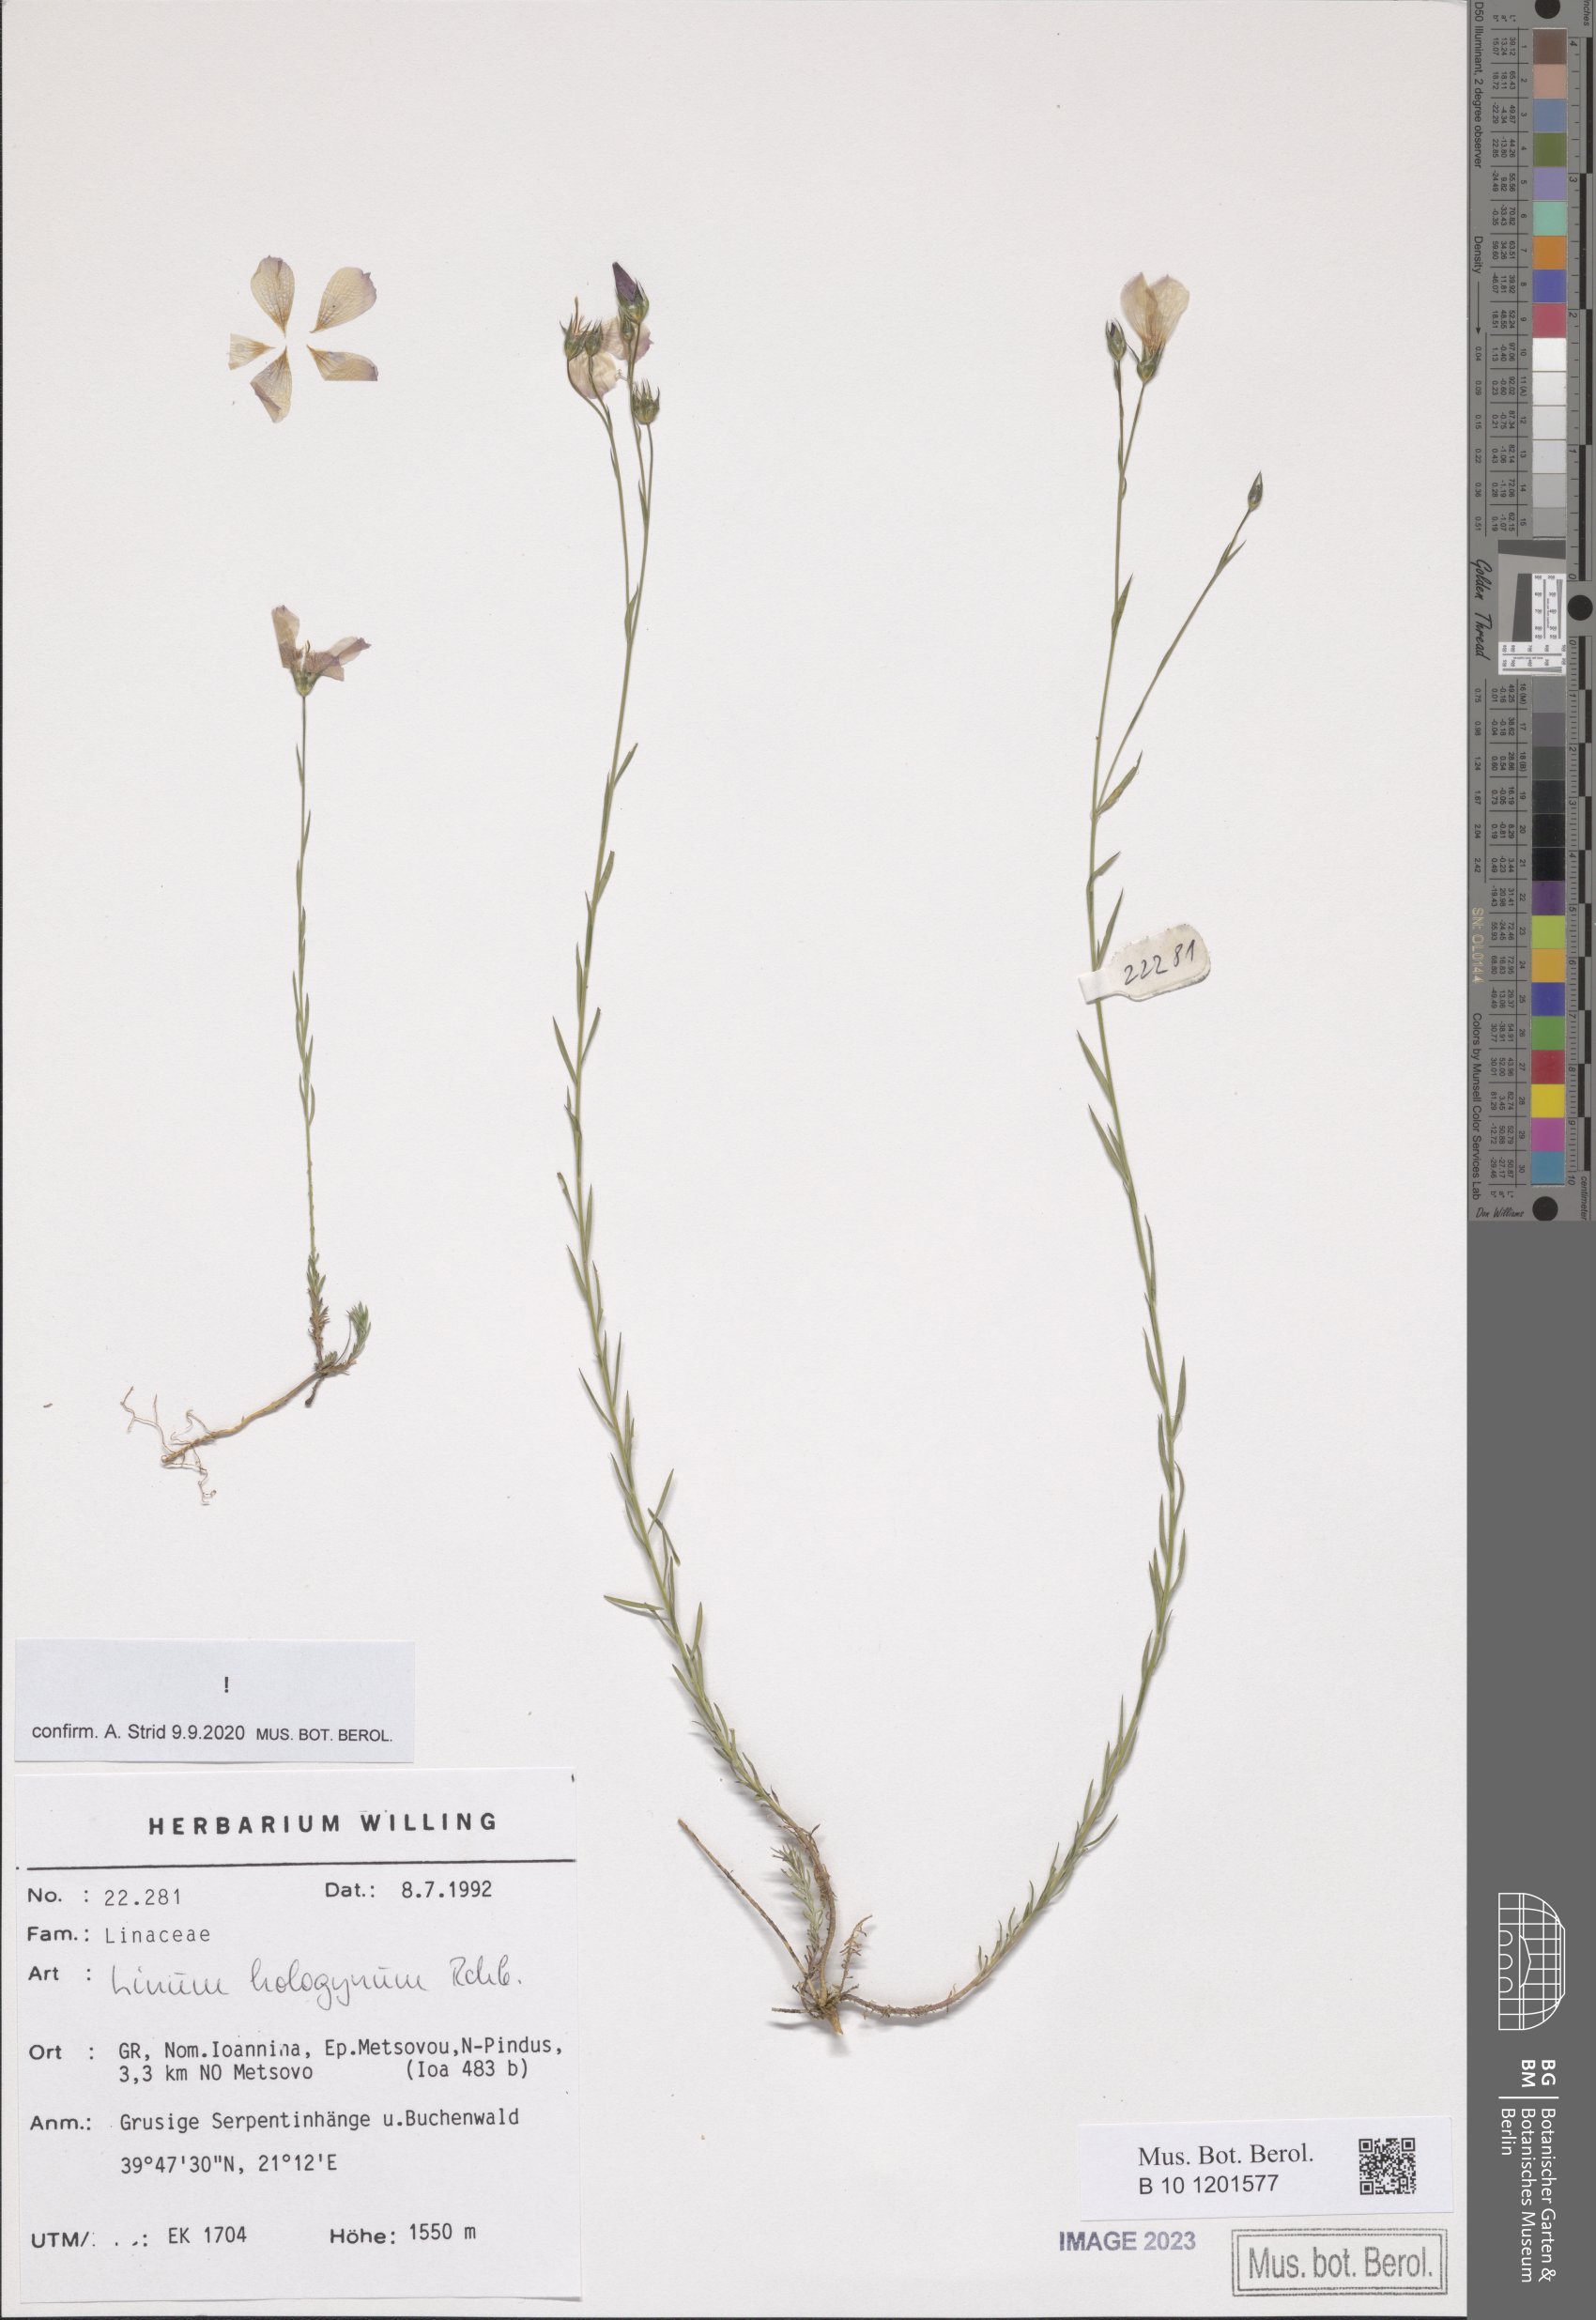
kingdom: Plantae
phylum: Tracheophyta
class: Magnoliopsida
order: Malpighiales
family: Linaceae
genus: Linum
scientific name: Linum hologynum
